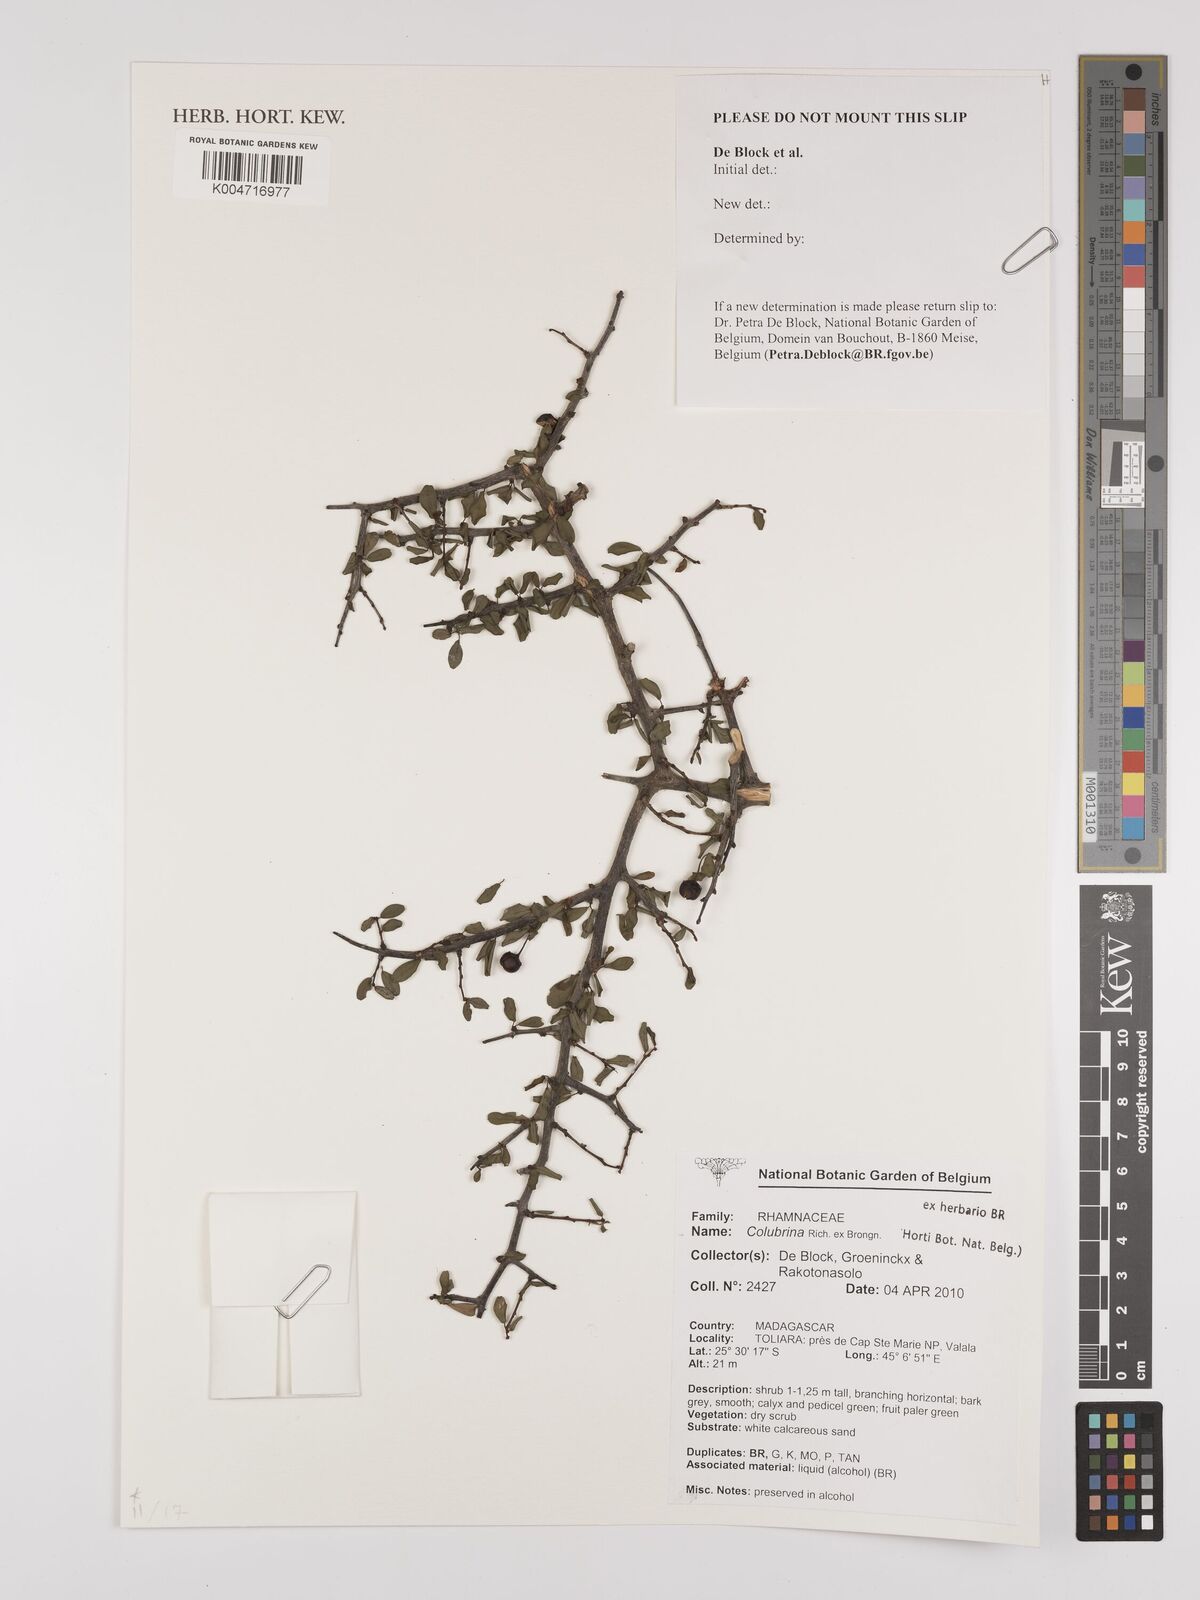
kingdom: Plantae
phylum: Tracheophyta
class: Magnoliopsida
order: Rosales
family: Rhamnaceae
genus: Colubrina
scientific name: Colubrina
